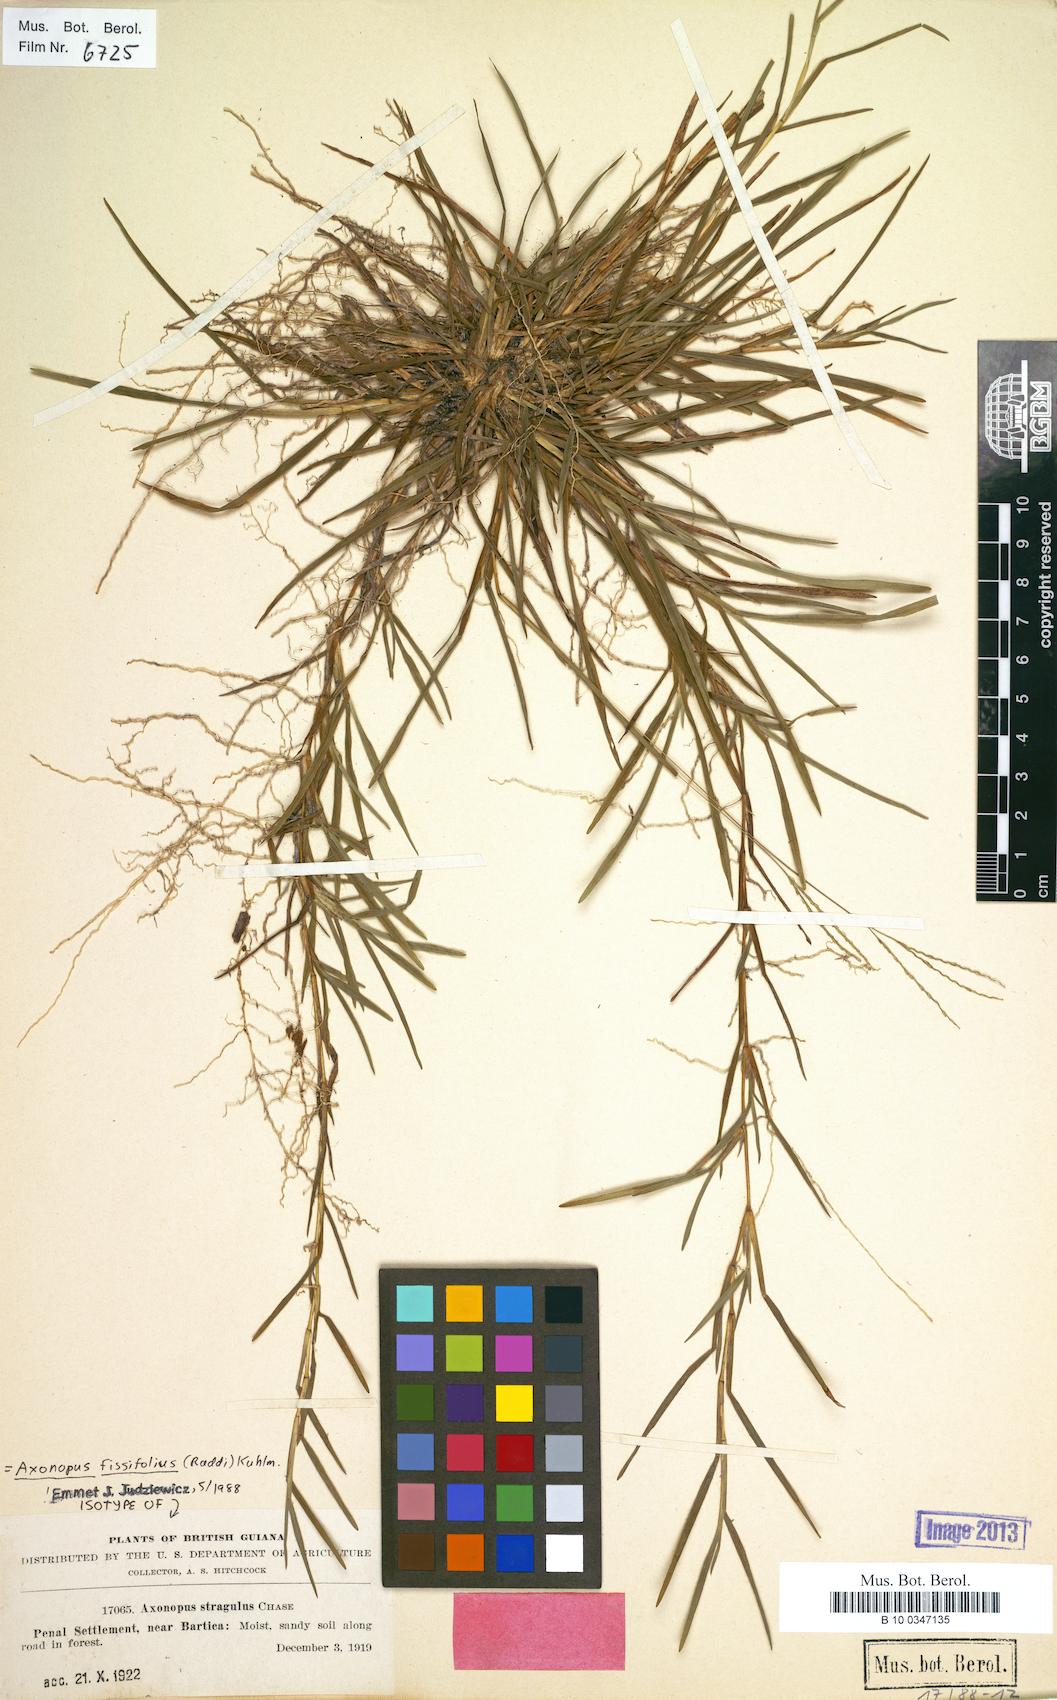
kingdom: Plantae
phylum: Tracheophyta
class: Liliopsida
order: Poales
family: Poaceae
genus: Axonopus
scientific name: Axonopus fissifolius
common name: Common carpetgrass
